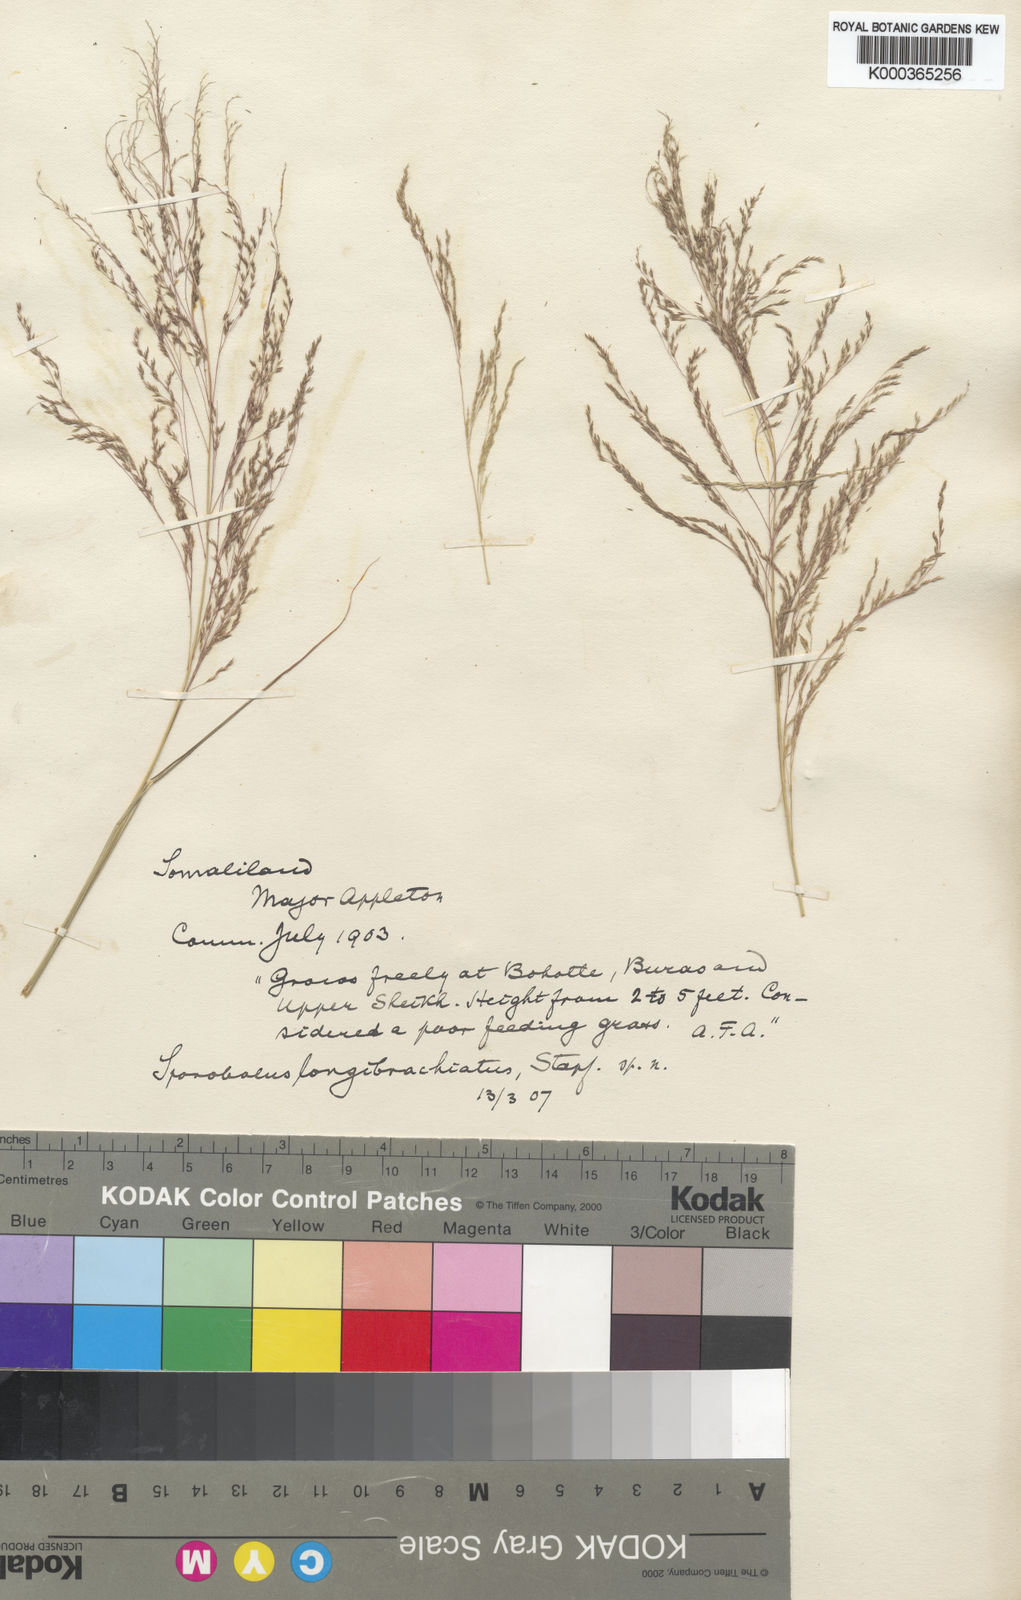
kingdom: Plantae
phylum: Tracheophyta
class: Liliopsida
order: Poales
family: Poaceae
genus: Sporobolus
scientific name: Sporobolus nervosus
